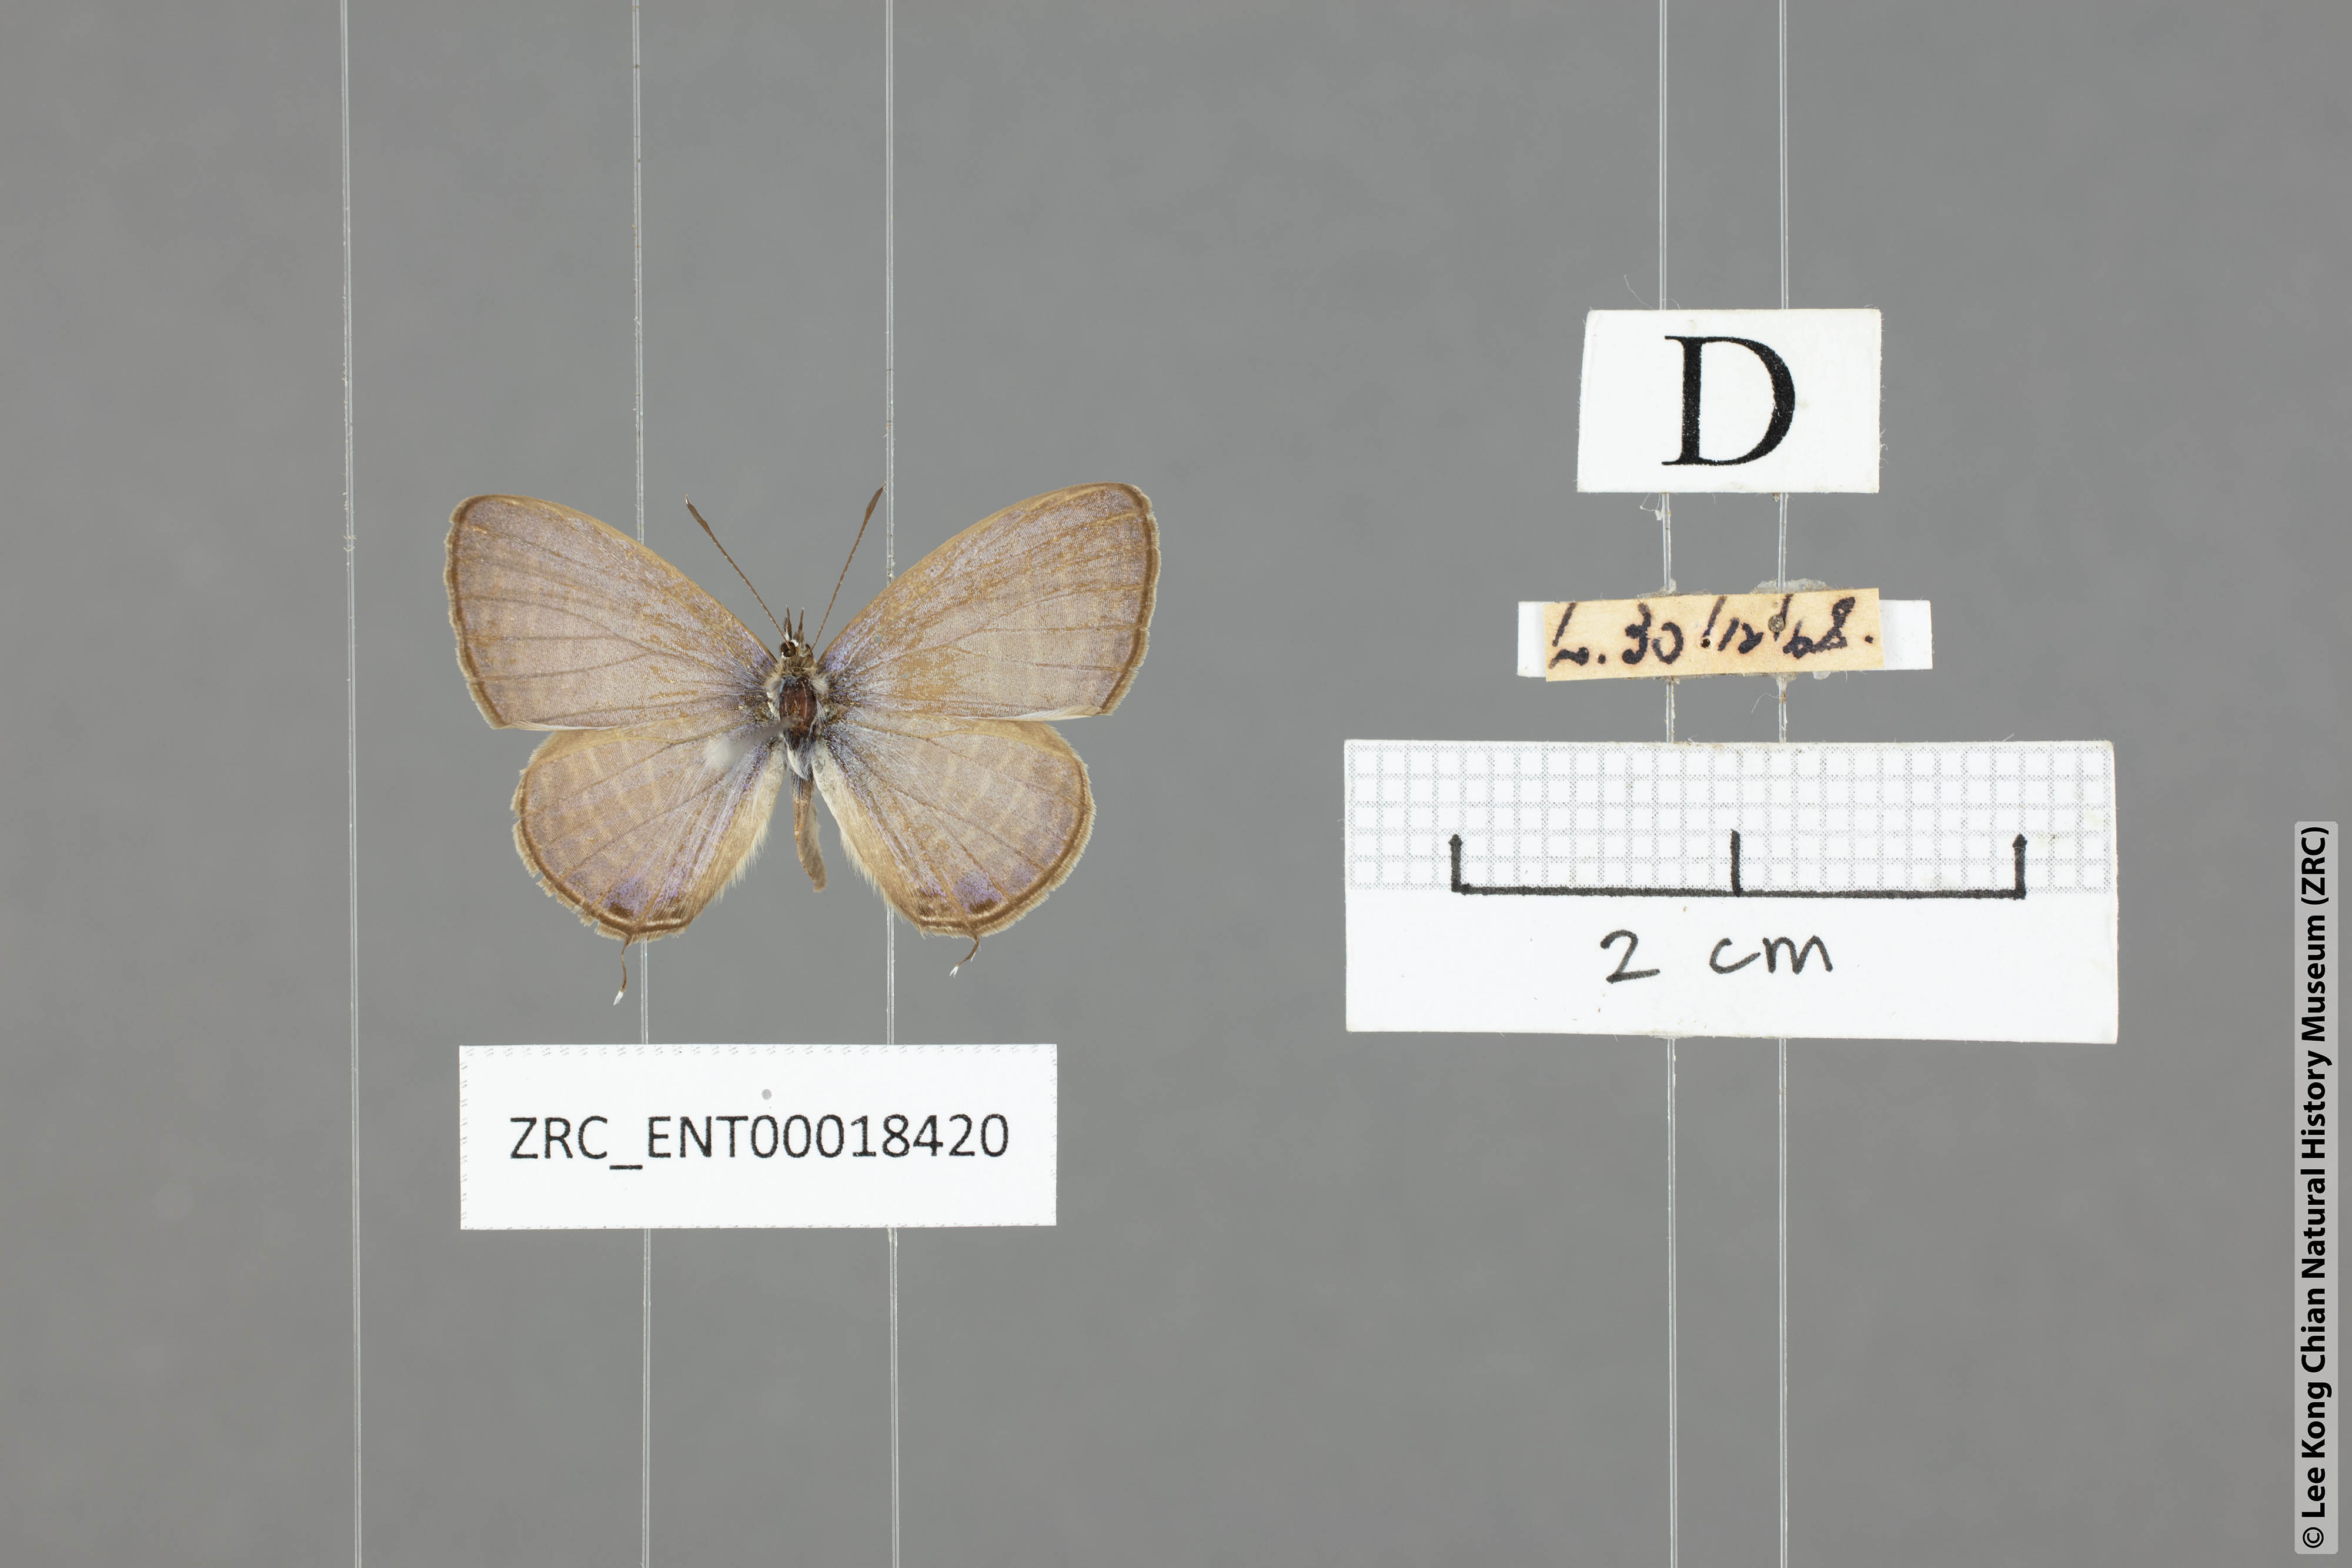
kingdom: Animalia
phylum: Arthropoda
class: Insecta
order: Lepidoptera
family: Lycaenidae
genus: Nacaduba
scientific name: Nacaduba pavana
